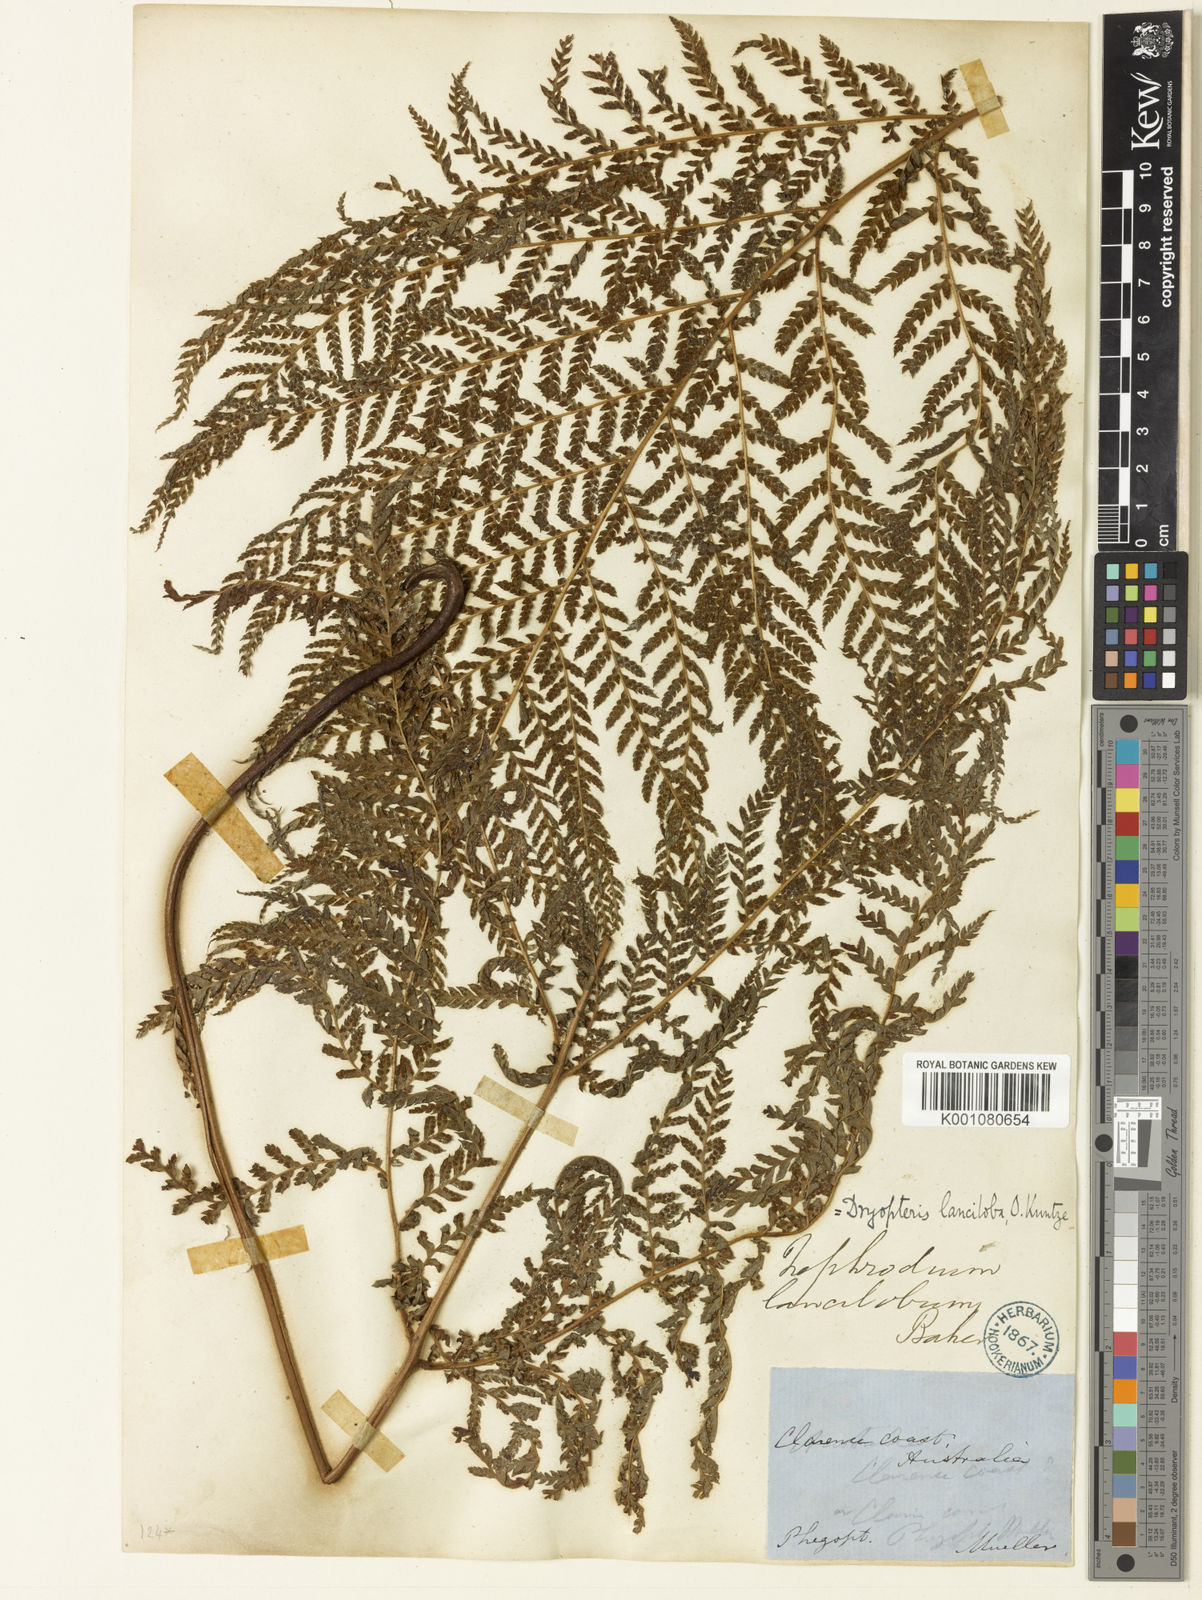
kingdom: Plantae
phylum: Tracheophyta
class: Polypodiopsida
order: Polypodiales
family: Dryopteridaceae
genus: Lastreopsis
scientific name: Lastreopsis decomposita
